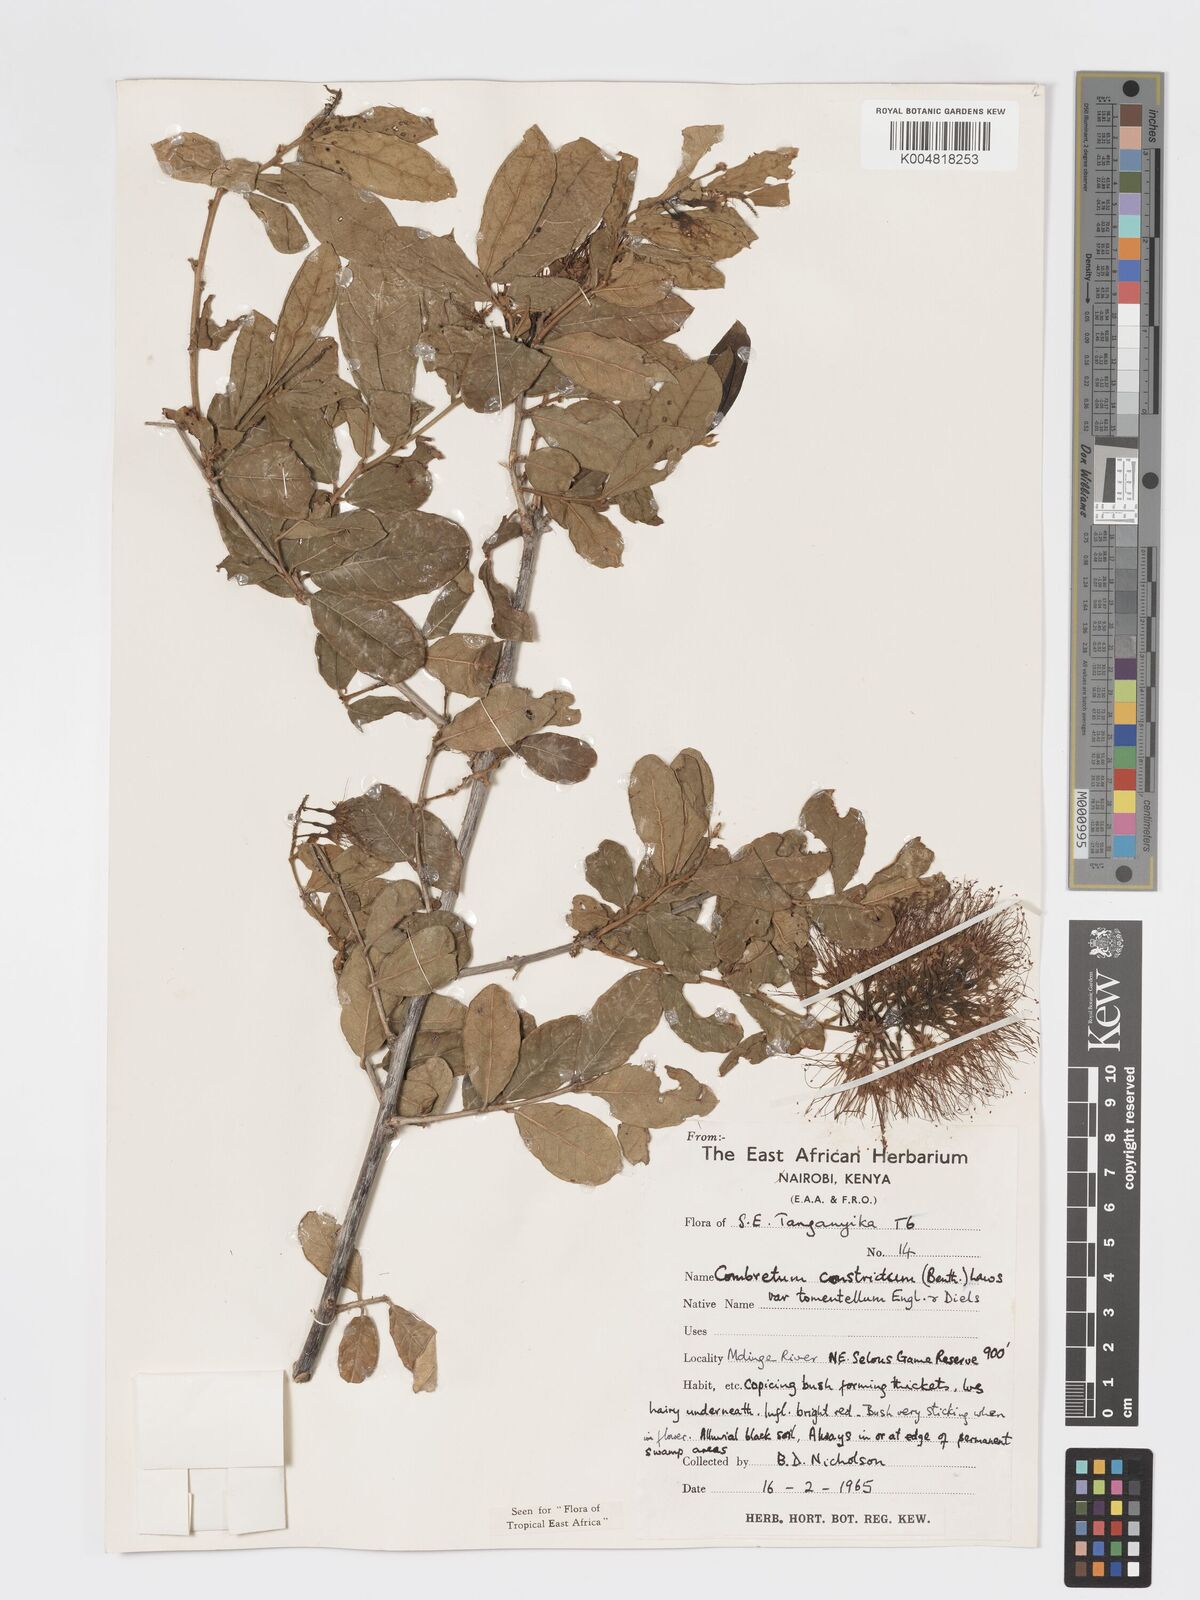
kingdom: Plantae
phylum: Tracheophyta
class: Magnoliopsida
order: Myrtales
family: Combretaceae
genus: Combretum
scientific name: Combretum constrictum
